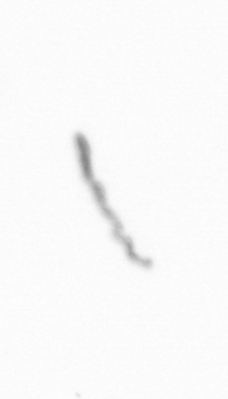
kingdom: Chromista
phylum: Ochrophyta
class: Bacillariophyceae
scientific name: Bacillariophyceae
